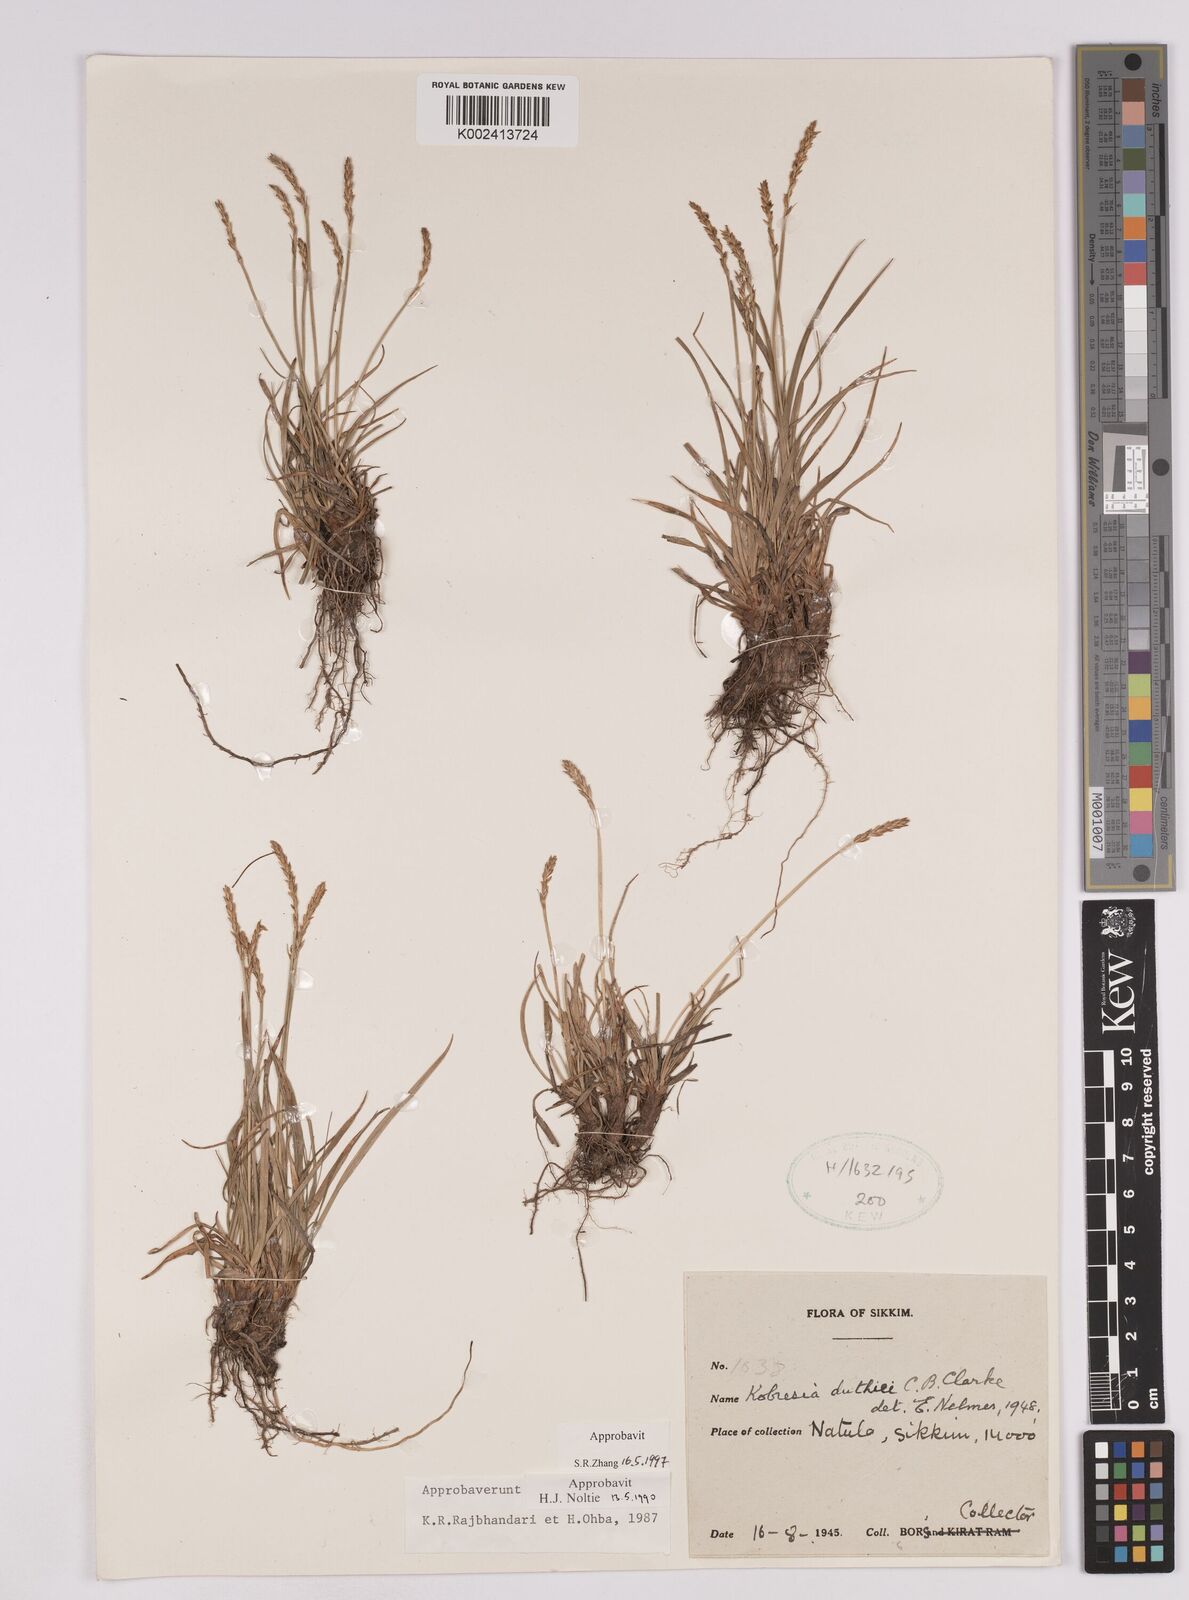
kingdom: Plantae
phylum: Tracheophyta
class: Liliopsida
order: Poales
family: Cyperaceae
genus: Carex
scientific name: Carex clavispica
